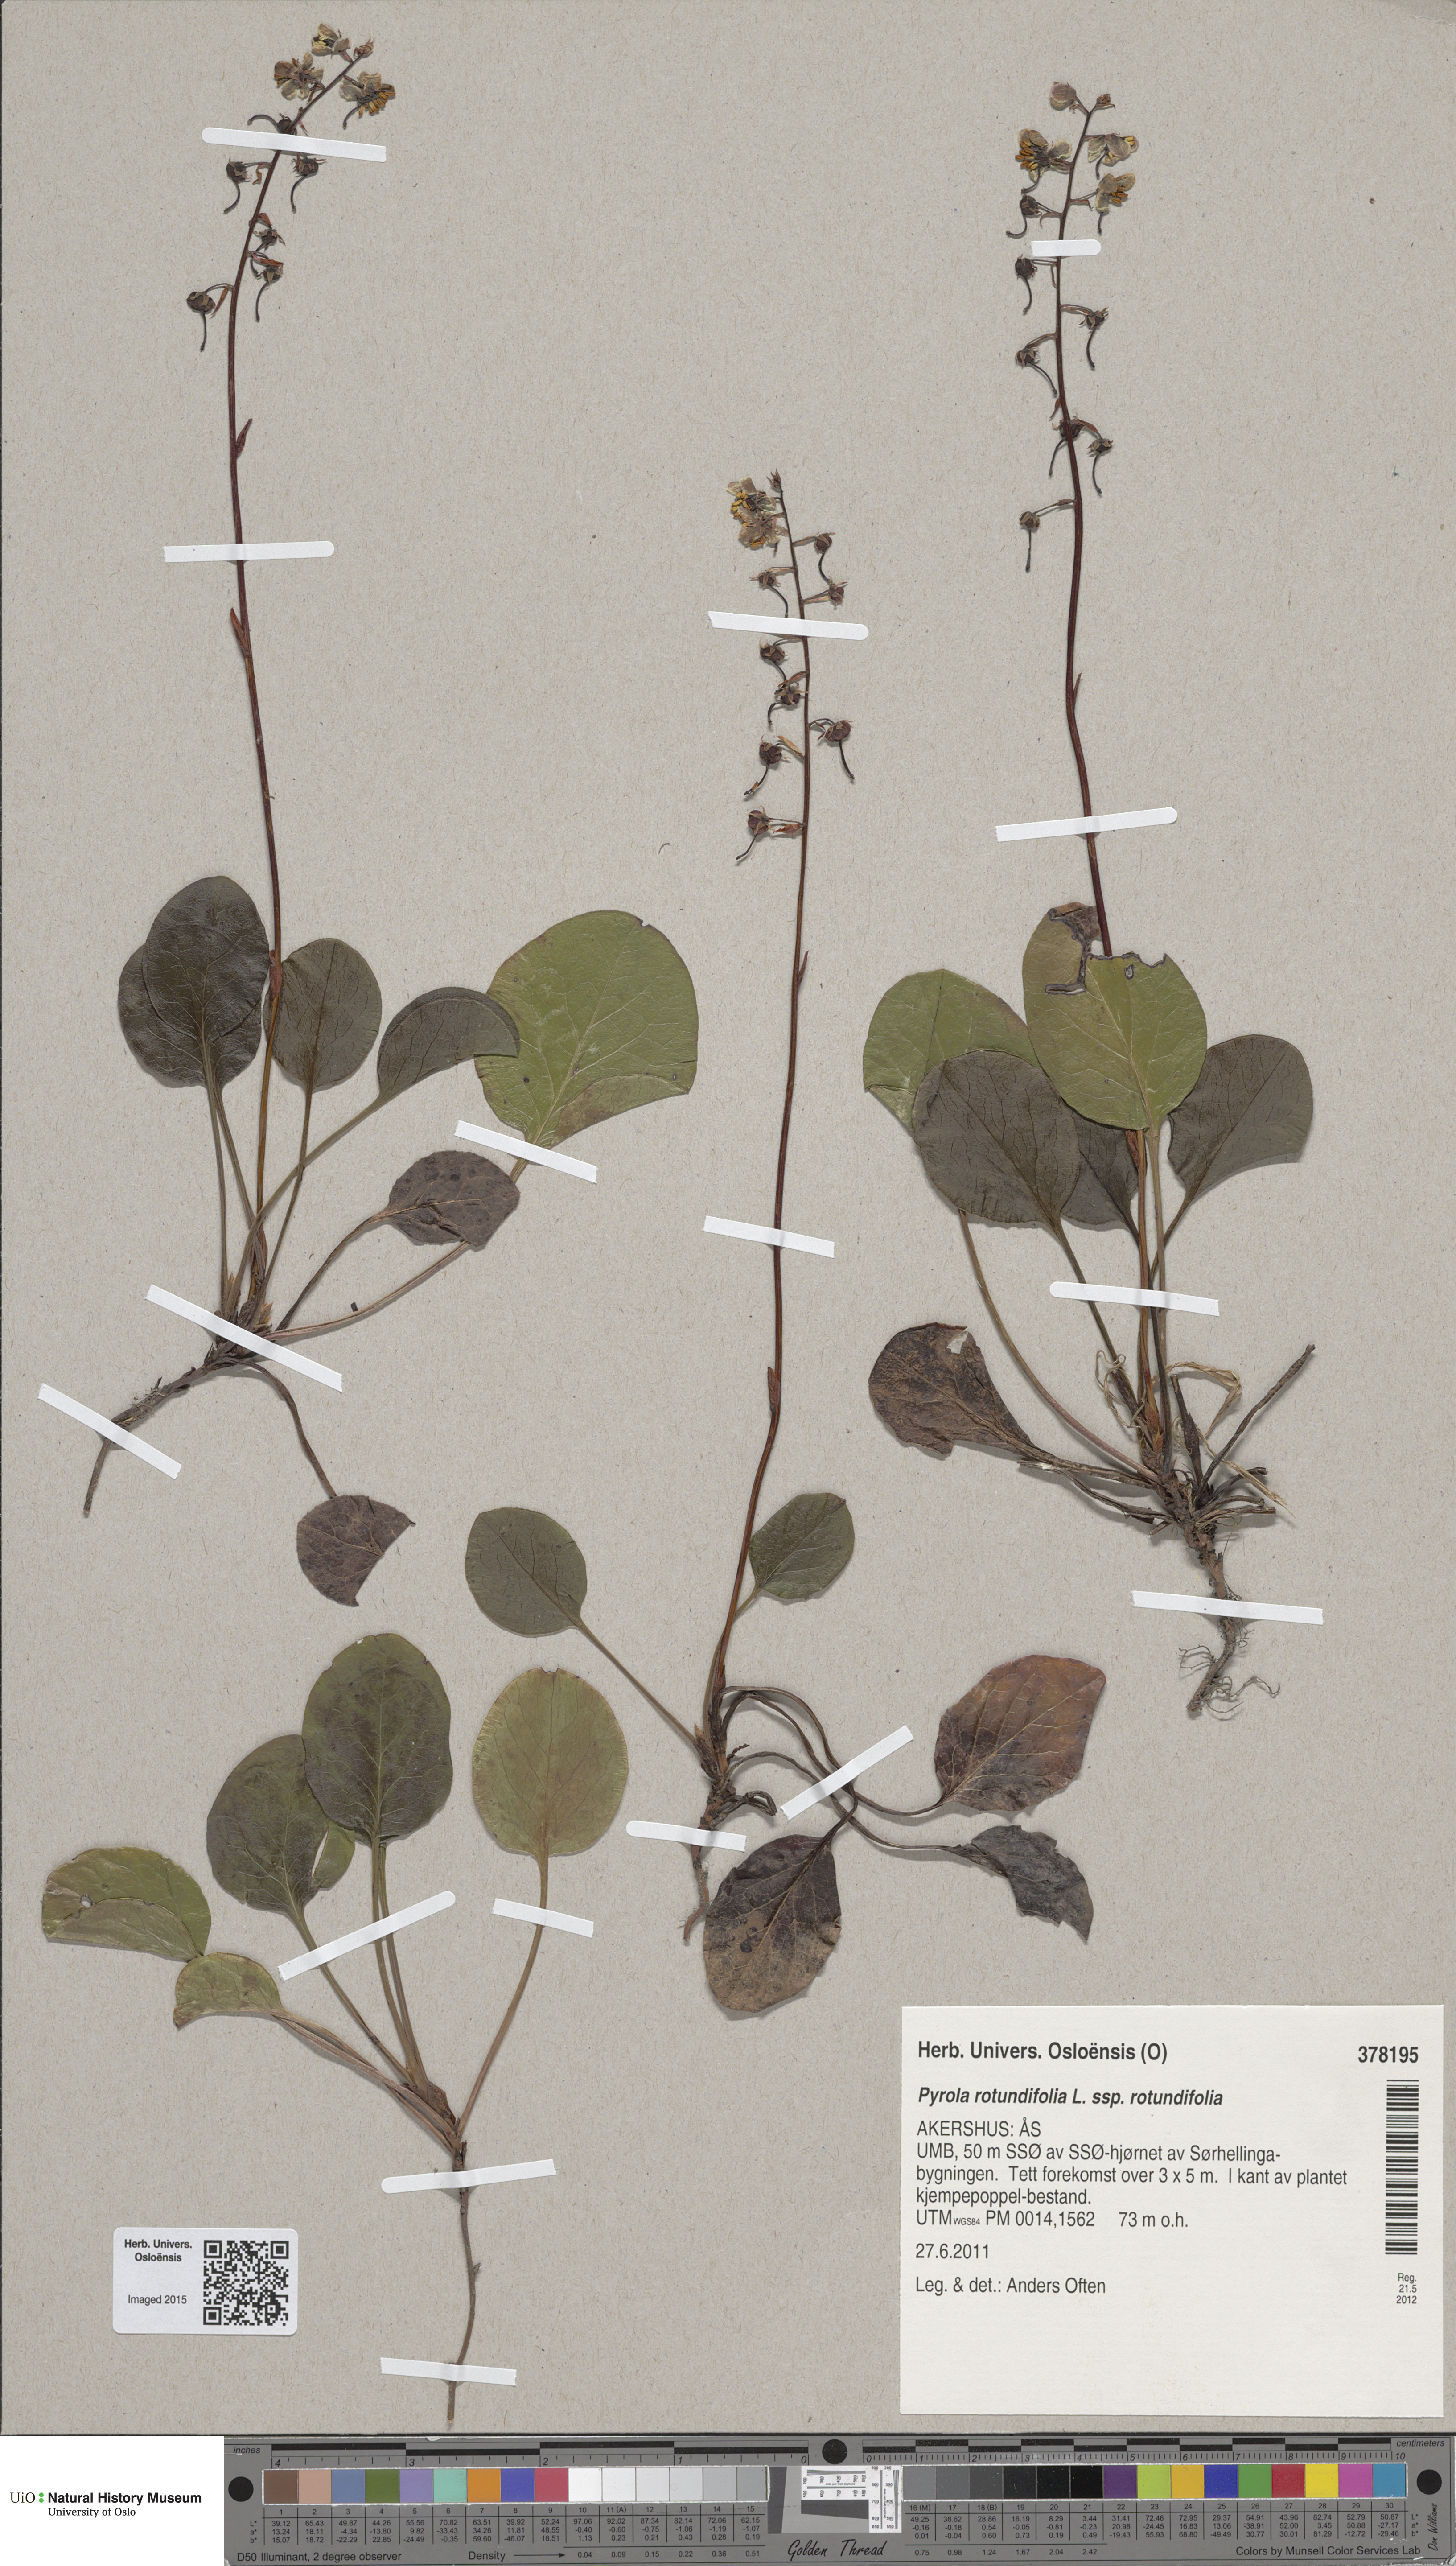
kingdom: Plantae
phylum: Tracheophyta
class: Magnoliopsida
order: Ericales
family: Ericaceae
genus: Pyrola
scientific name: Pyrola rotundifolia
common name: Round-leaved wintergreen
